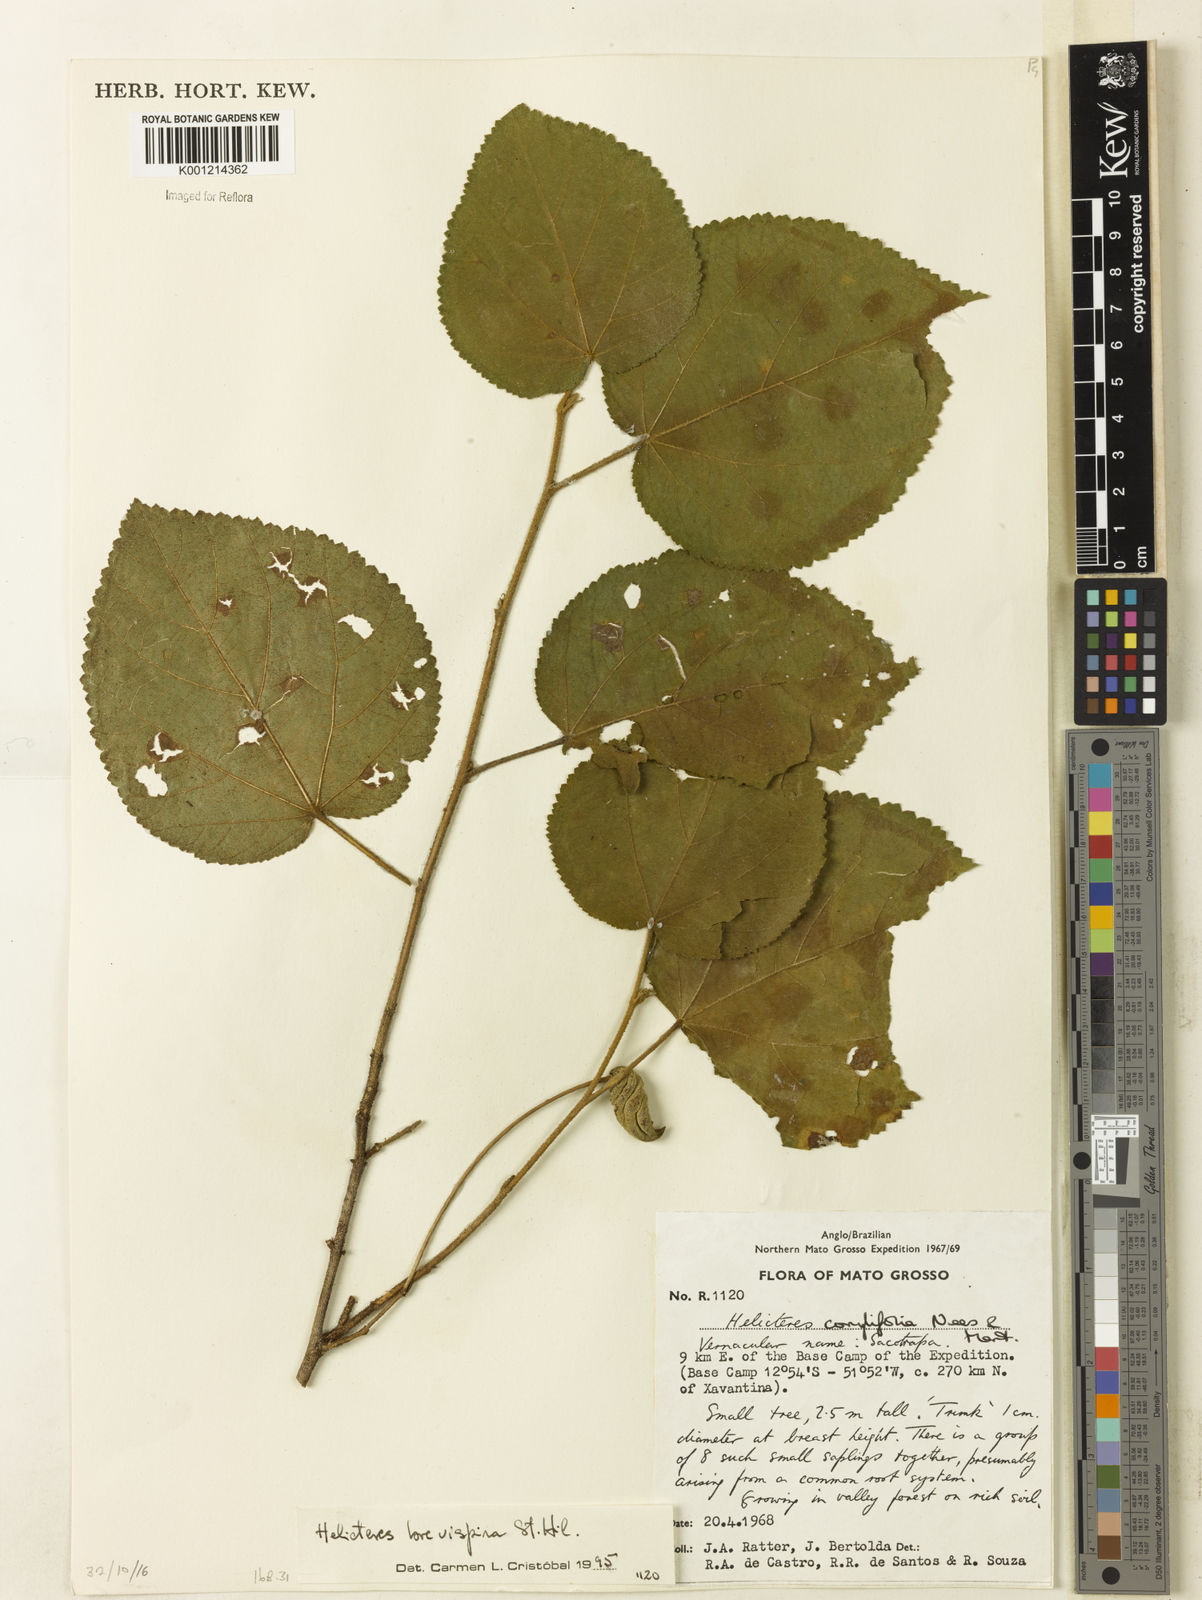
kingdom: Plantae
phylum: Tracheophyta
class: Magnoliopsida
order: Malvales
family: Malvaceae
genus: Helicteres
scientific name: Helicteres
